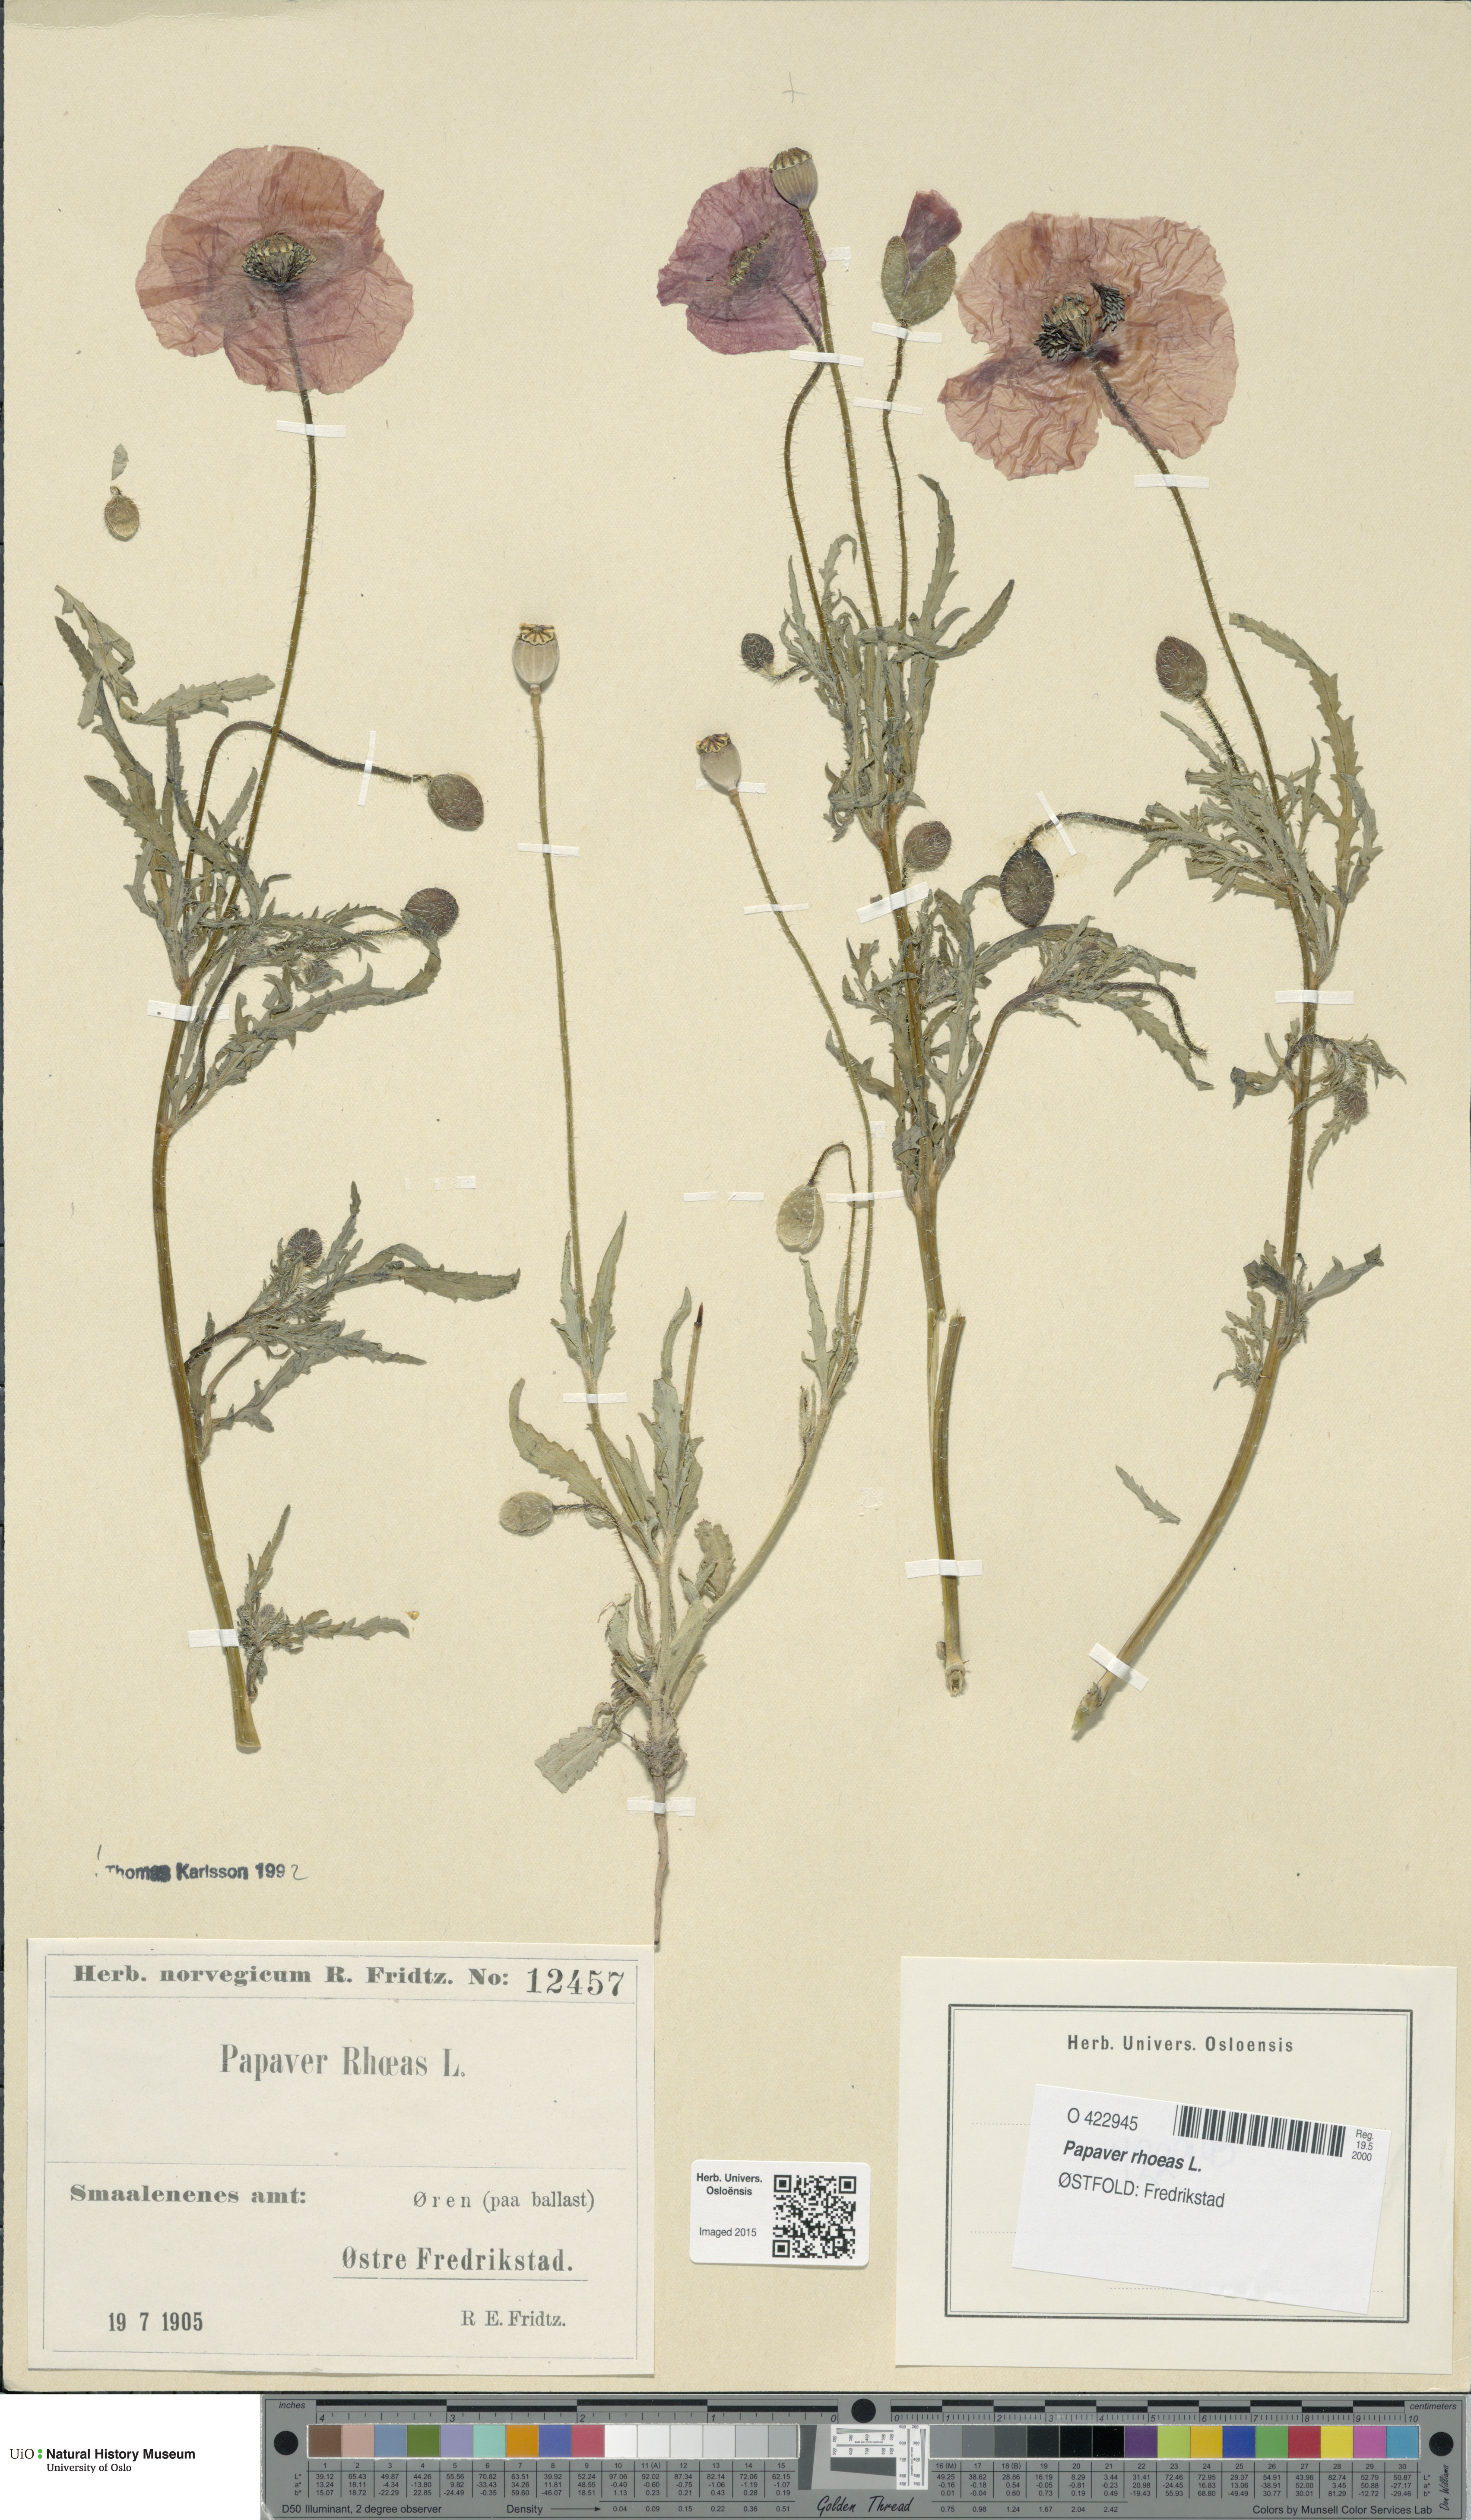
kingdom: Plantae
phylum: Tracheophyta
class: Magnoliopsida
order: Ranunculales
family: Papaveraceae
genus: Papaver
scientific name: Papaver rhoeas
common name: Corn poppy
